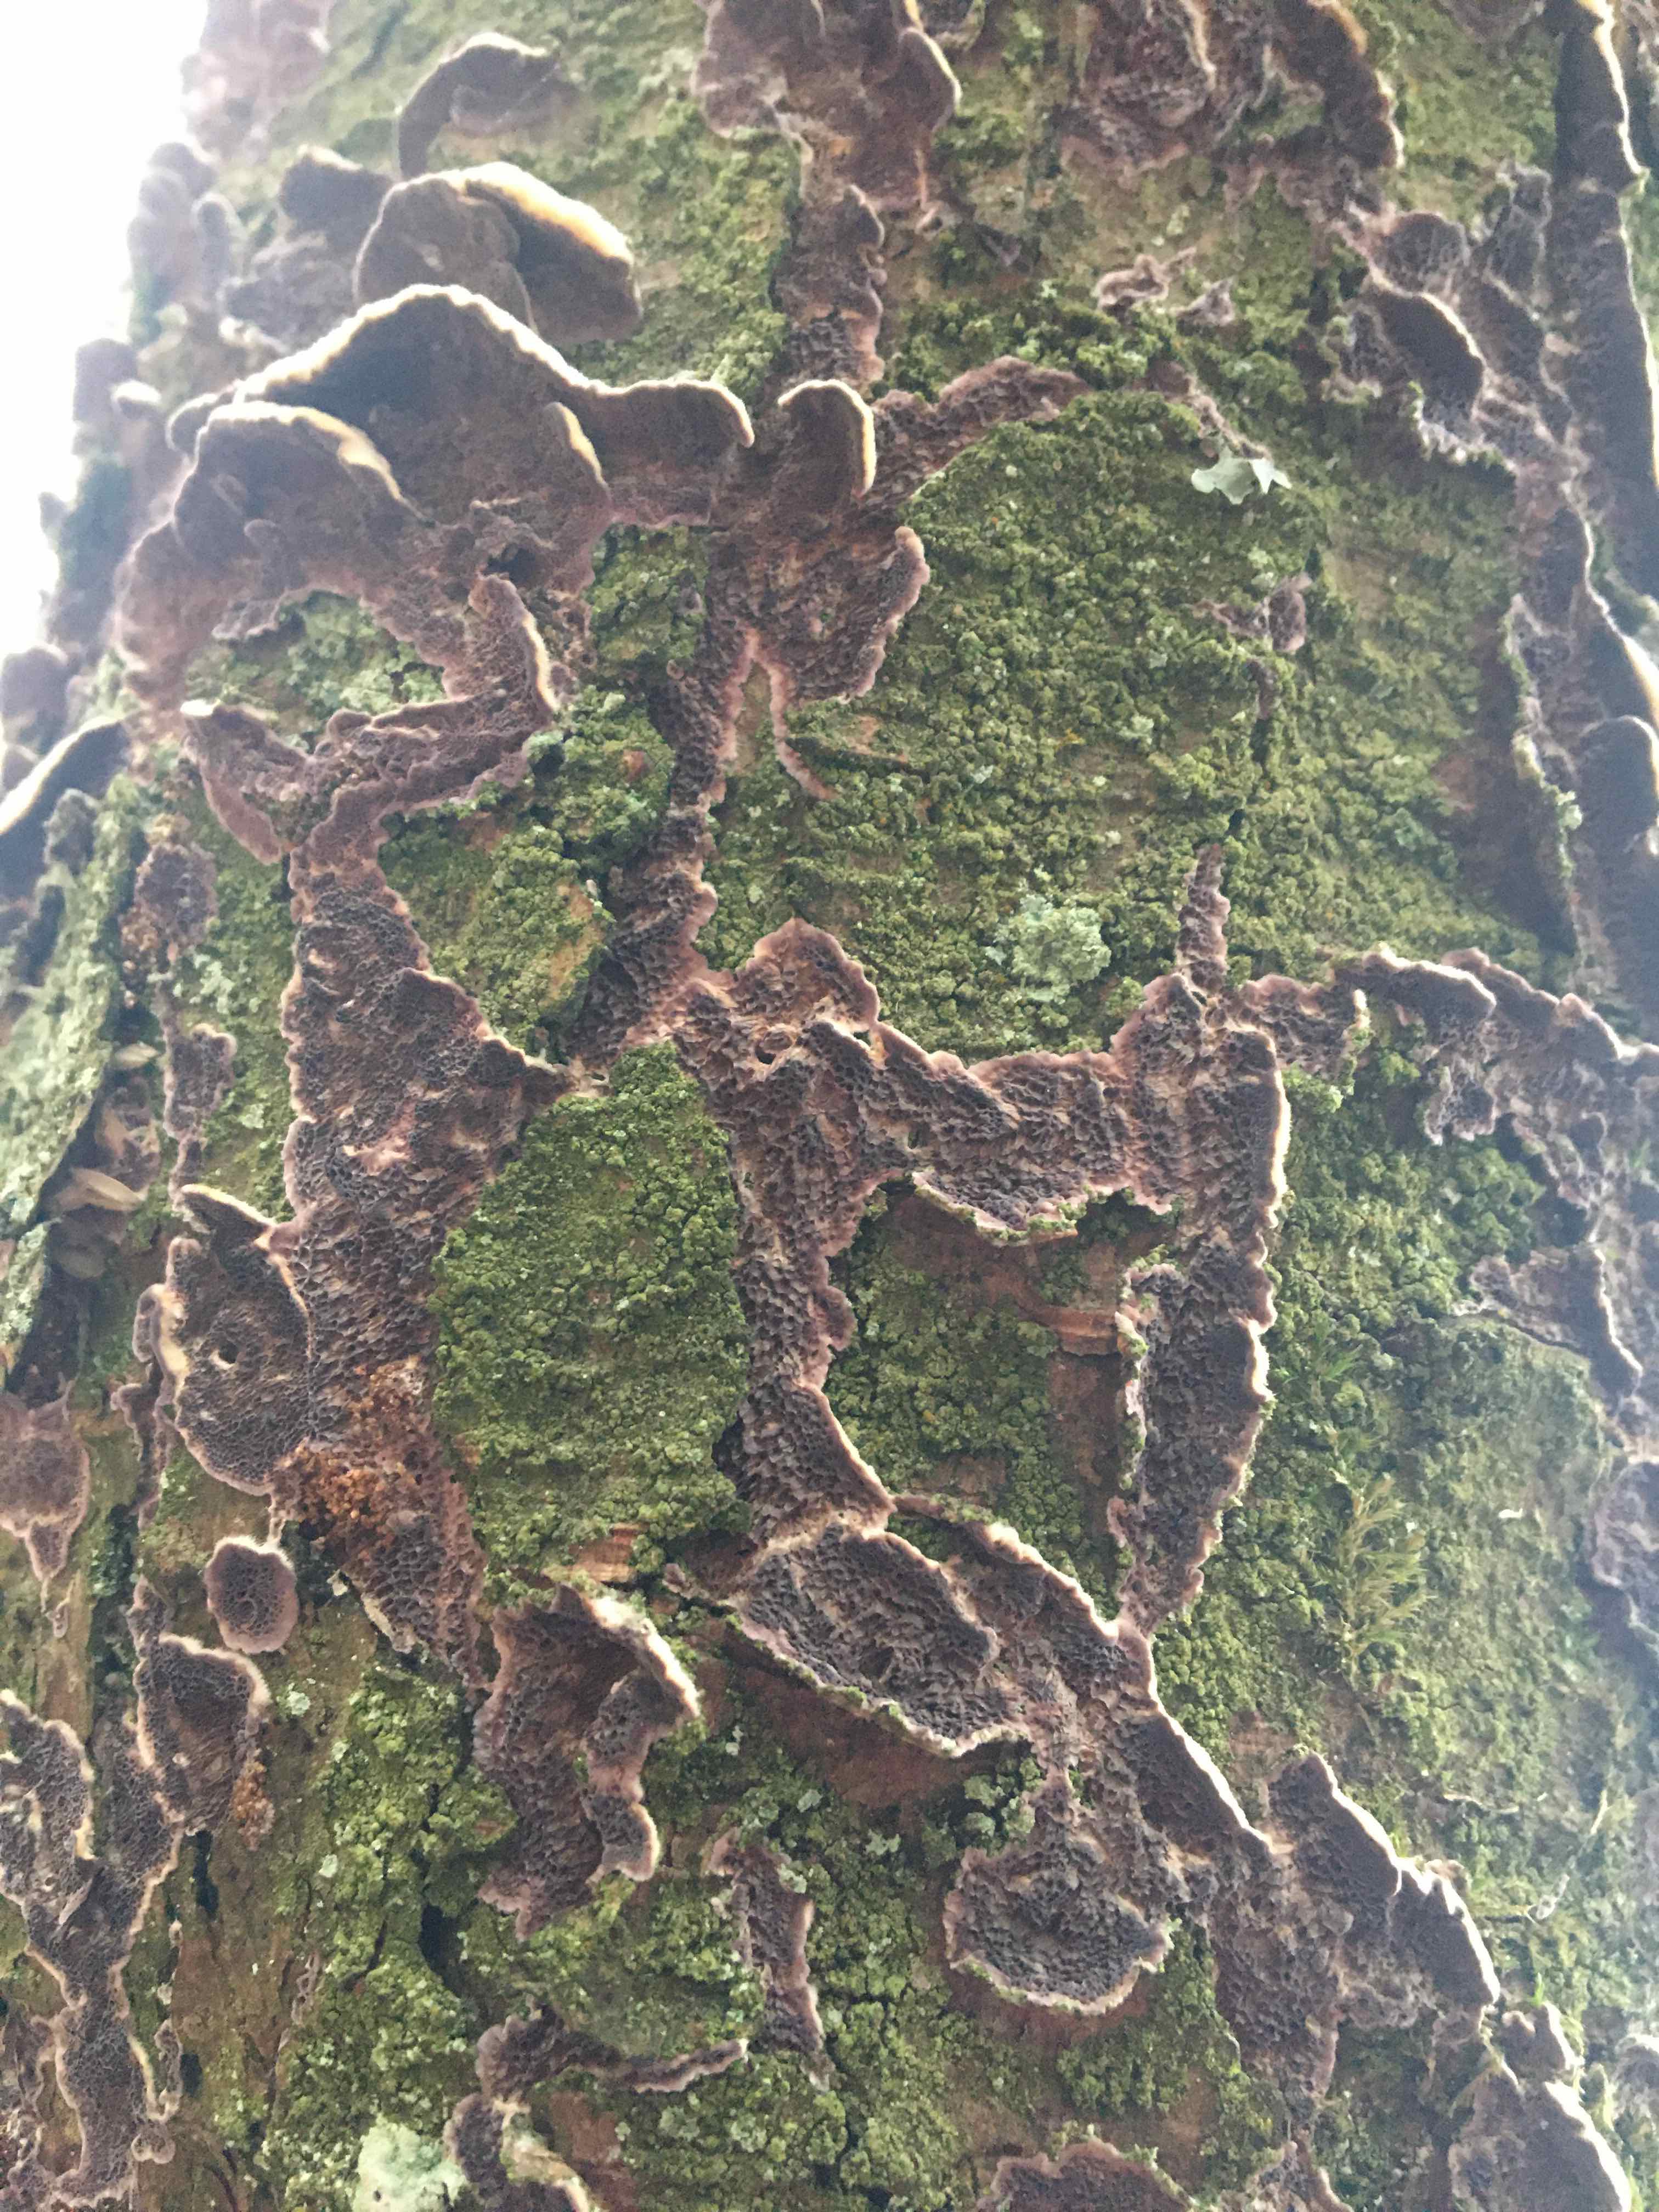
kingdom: Fungi
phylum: Basidiomycota
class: Agaricomycetes
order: Agaricales
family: Cyphellaceae
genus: Chondrostereum
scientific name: Chondrostereum purpureum
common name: purpurlædersvamp
